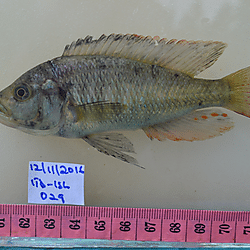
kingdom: Animalia
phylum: Chordata
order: Perciformes
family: Cichlidae
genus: Haplochromis
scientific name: Haplochromis brownae
